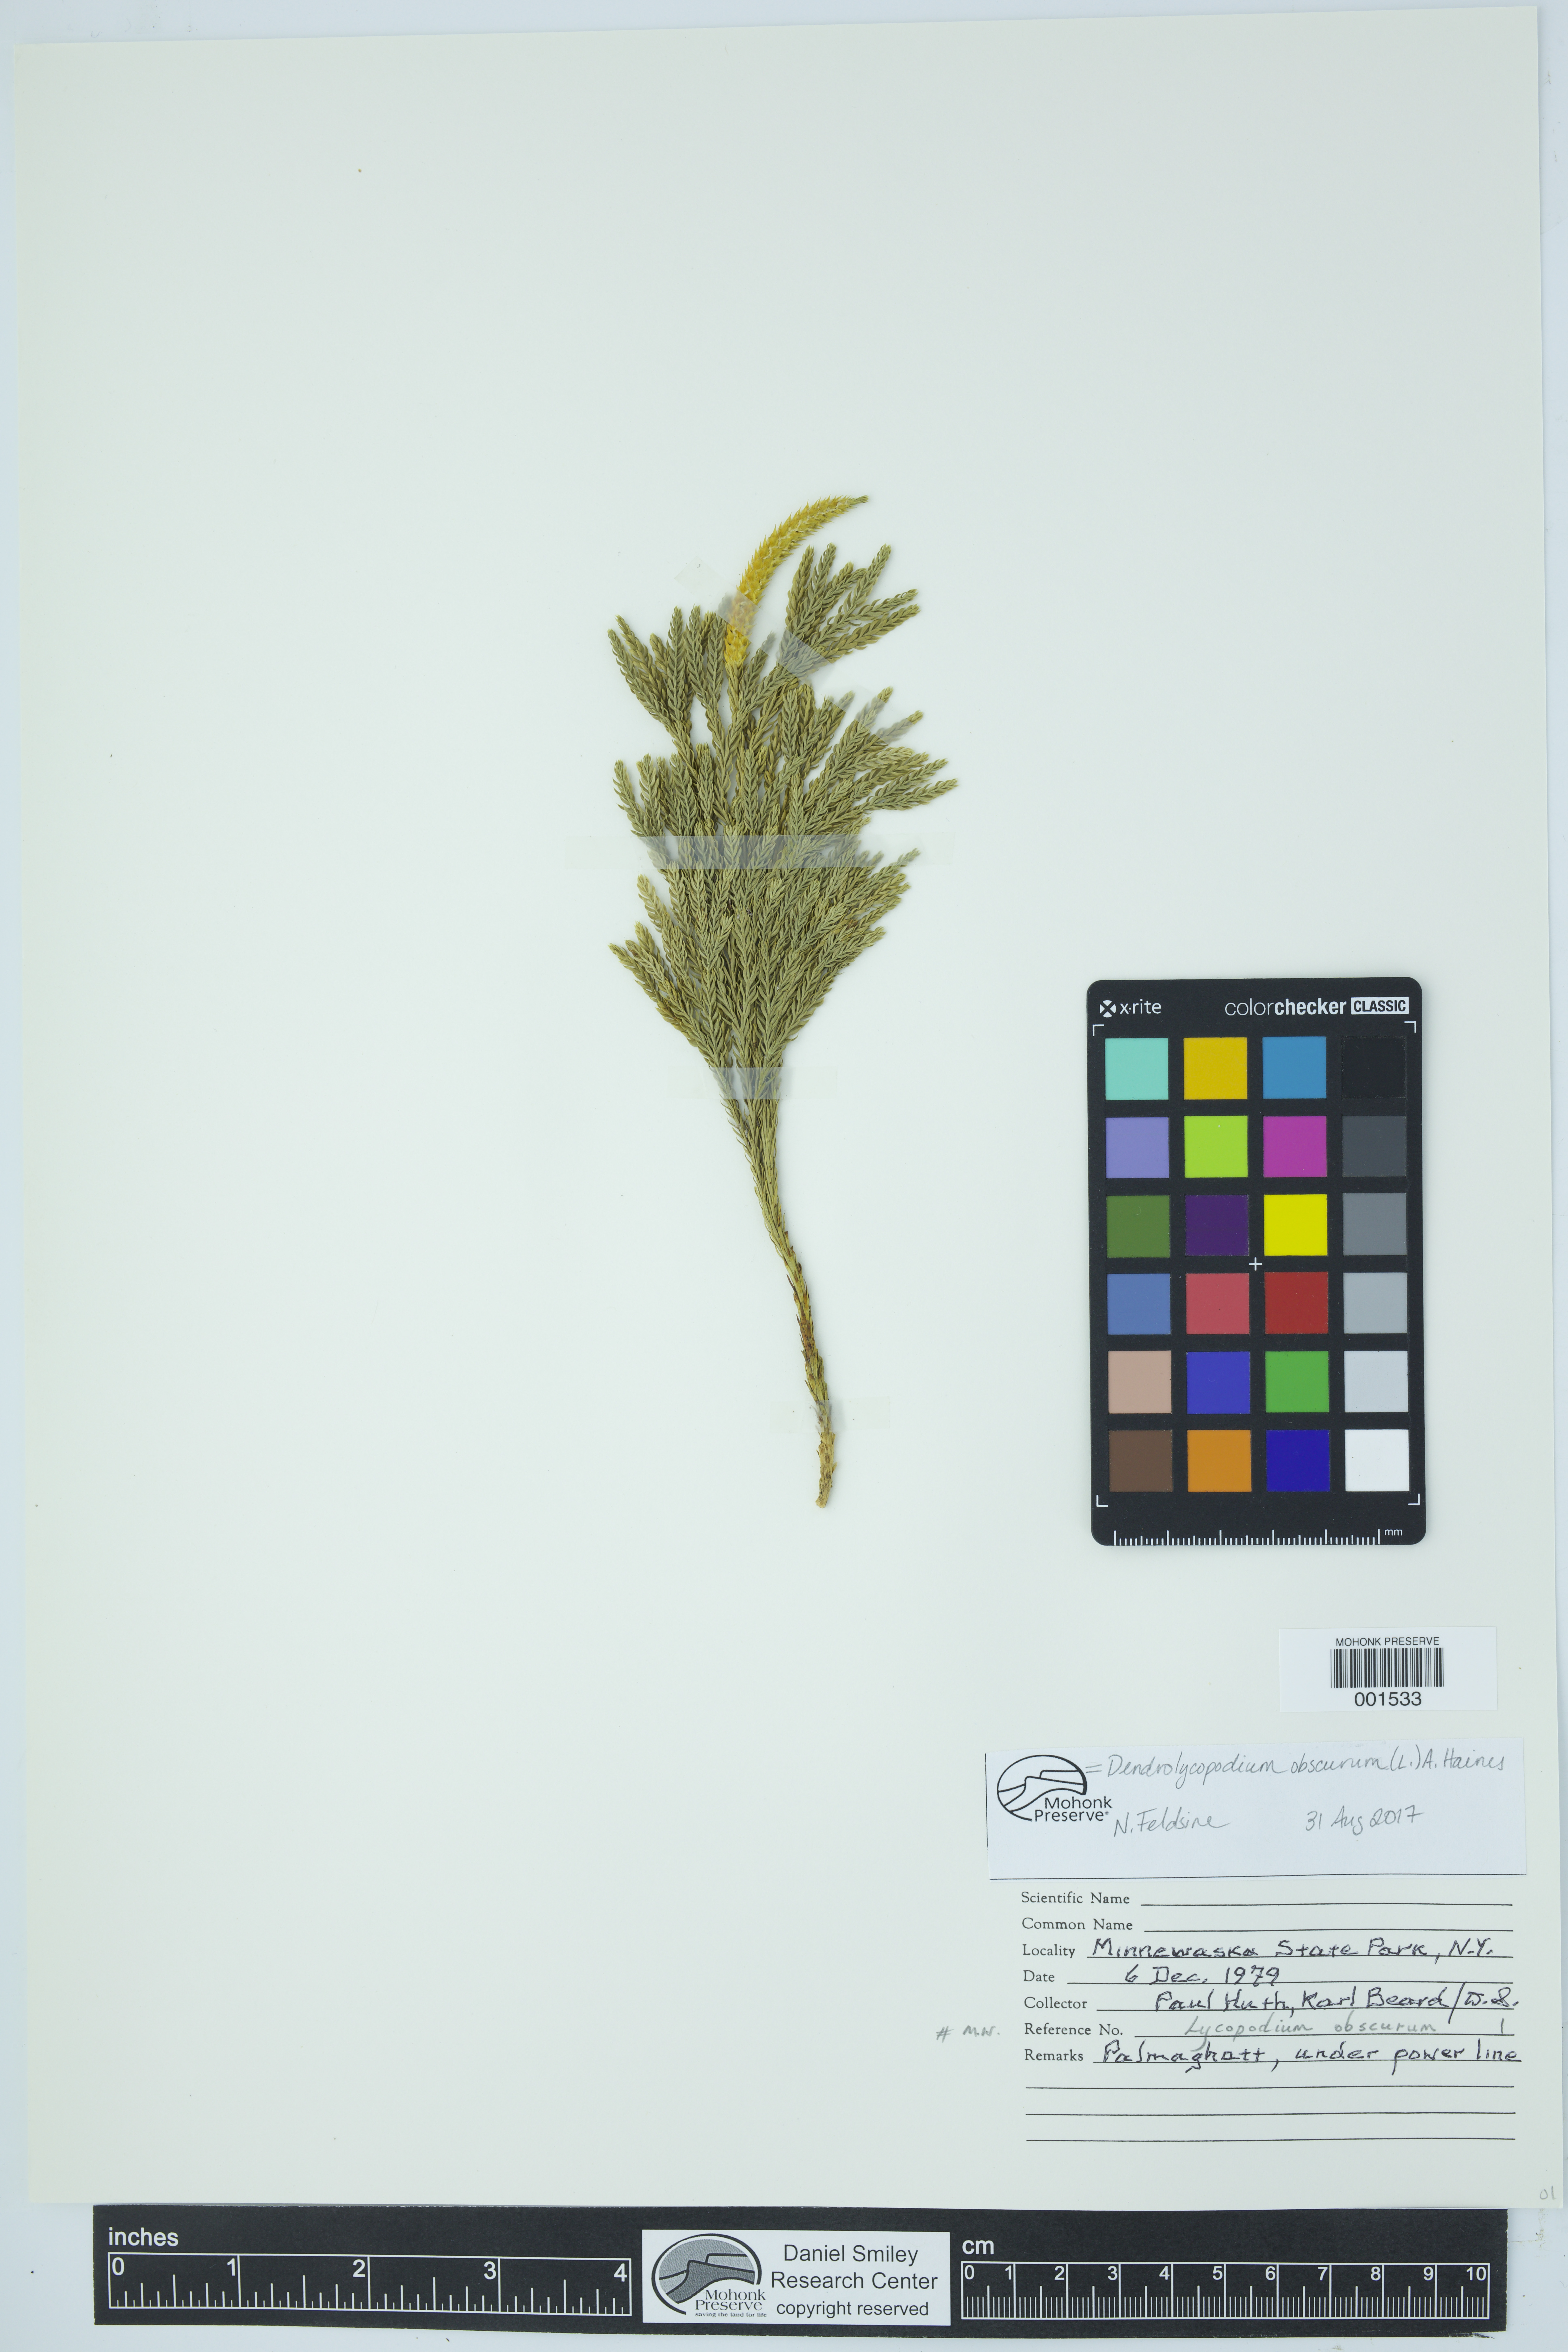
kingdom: Plantae
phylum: Tracheophyta
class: Lycopodiopsida
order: Lycopodiales
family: Lycopodiaceae
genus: Dendrolycopodium
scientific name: Dendrolycopodium obscurum
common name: Common ground-pine
